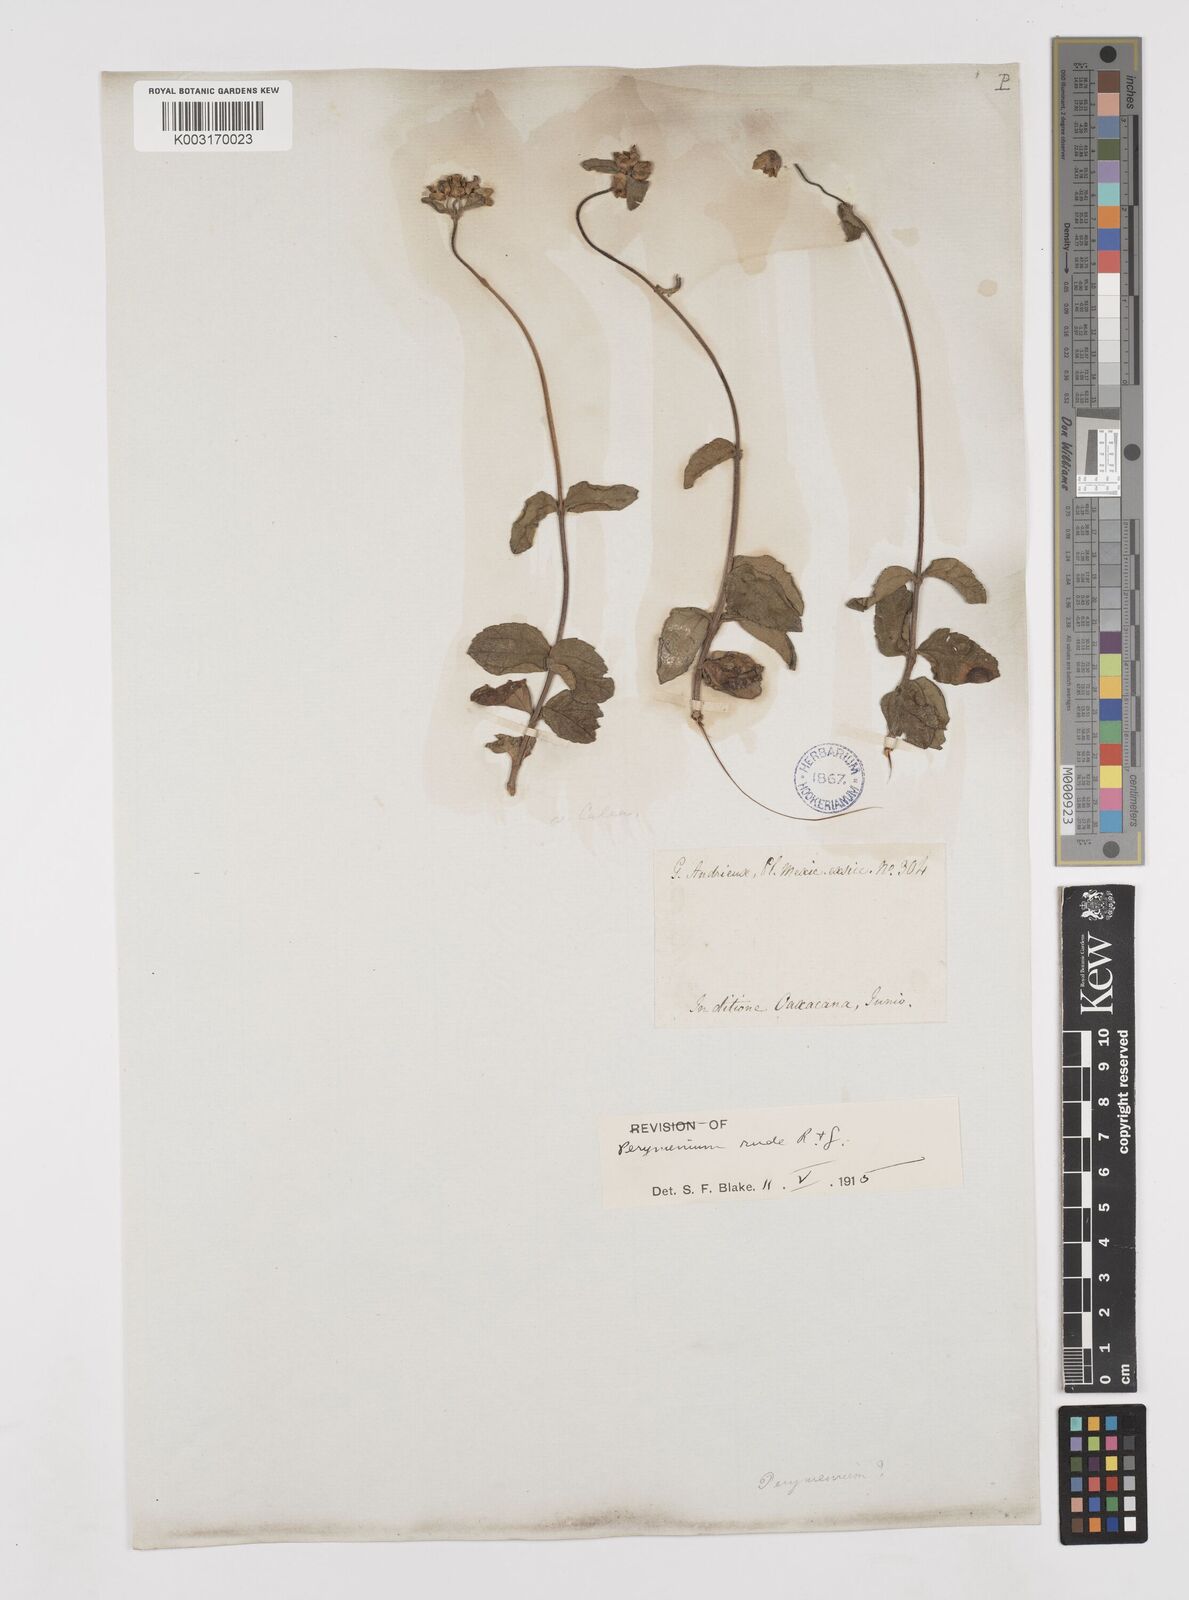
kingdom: Plantae
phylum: Tracheophyta
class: Magnoliopsida
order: Asterales
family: Asteraceae
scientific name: Asteraceae
